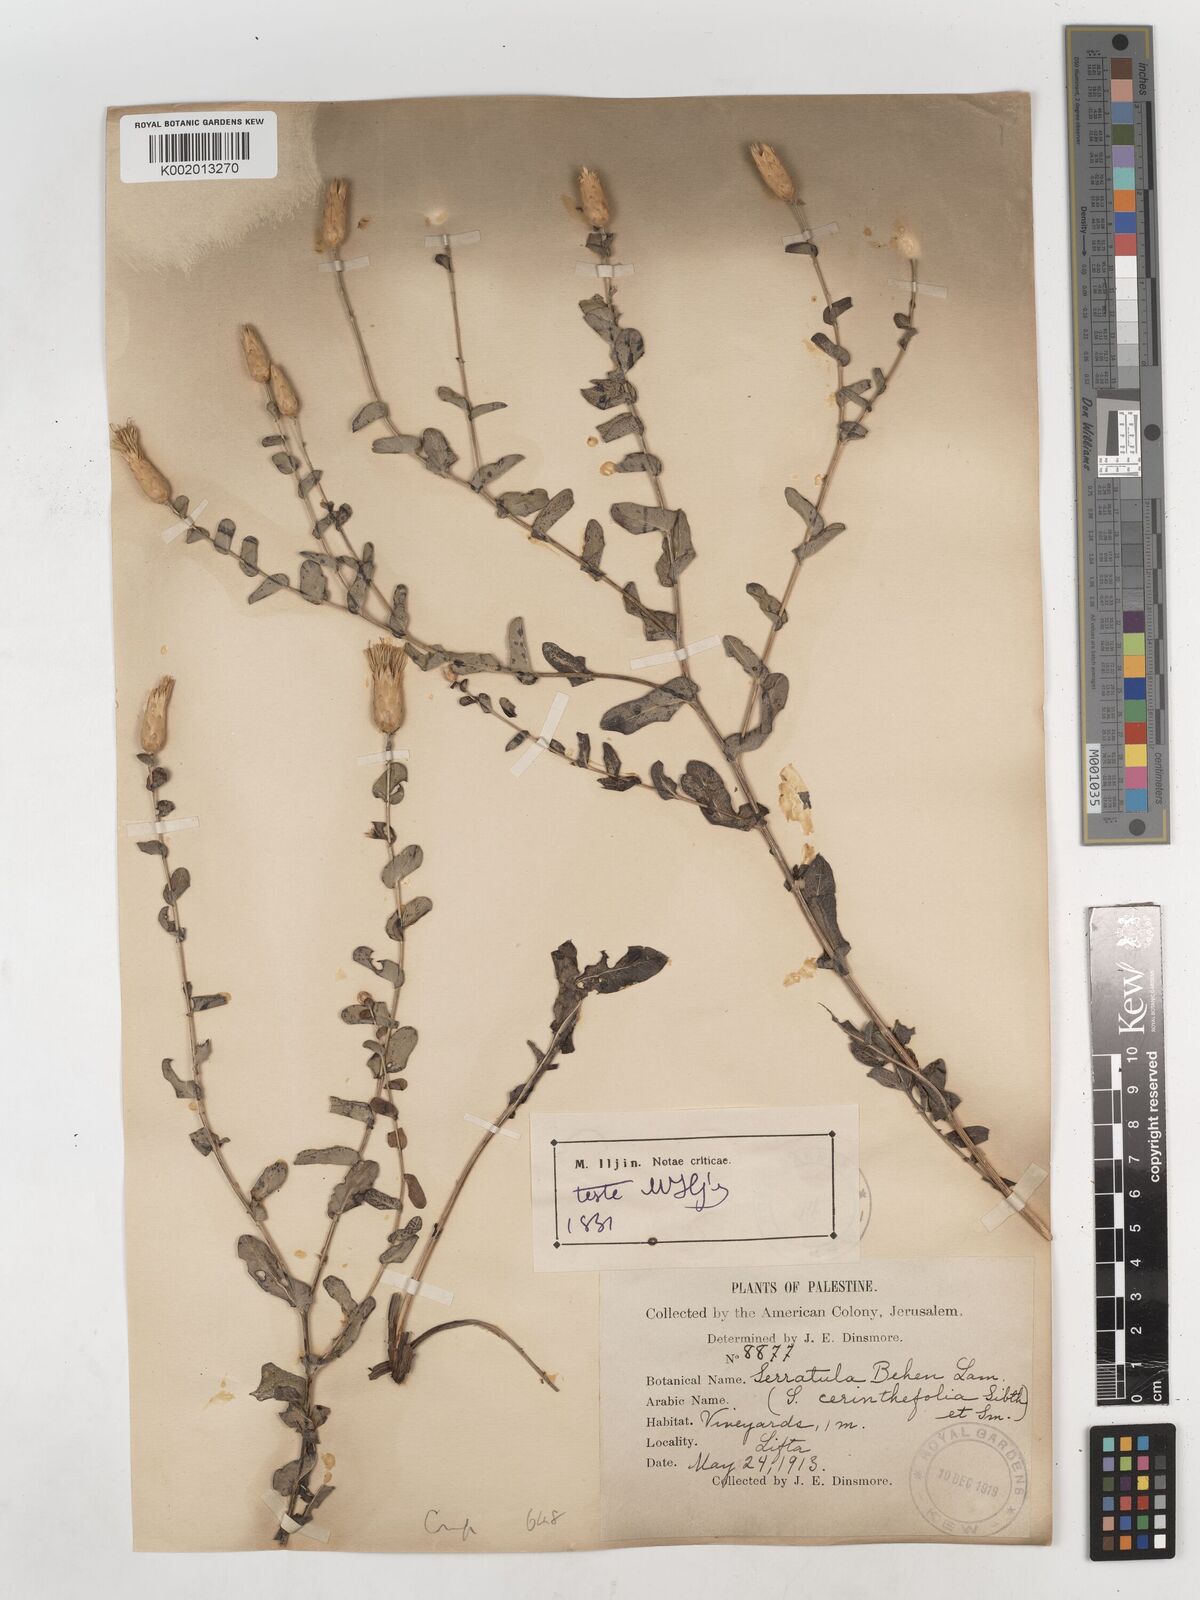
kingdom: Plantae
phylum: Tracheophyta
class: Magnoliopsida
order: Asterales
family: Asteraceae
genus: Klasea
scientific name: Klasea cerinthifolia
